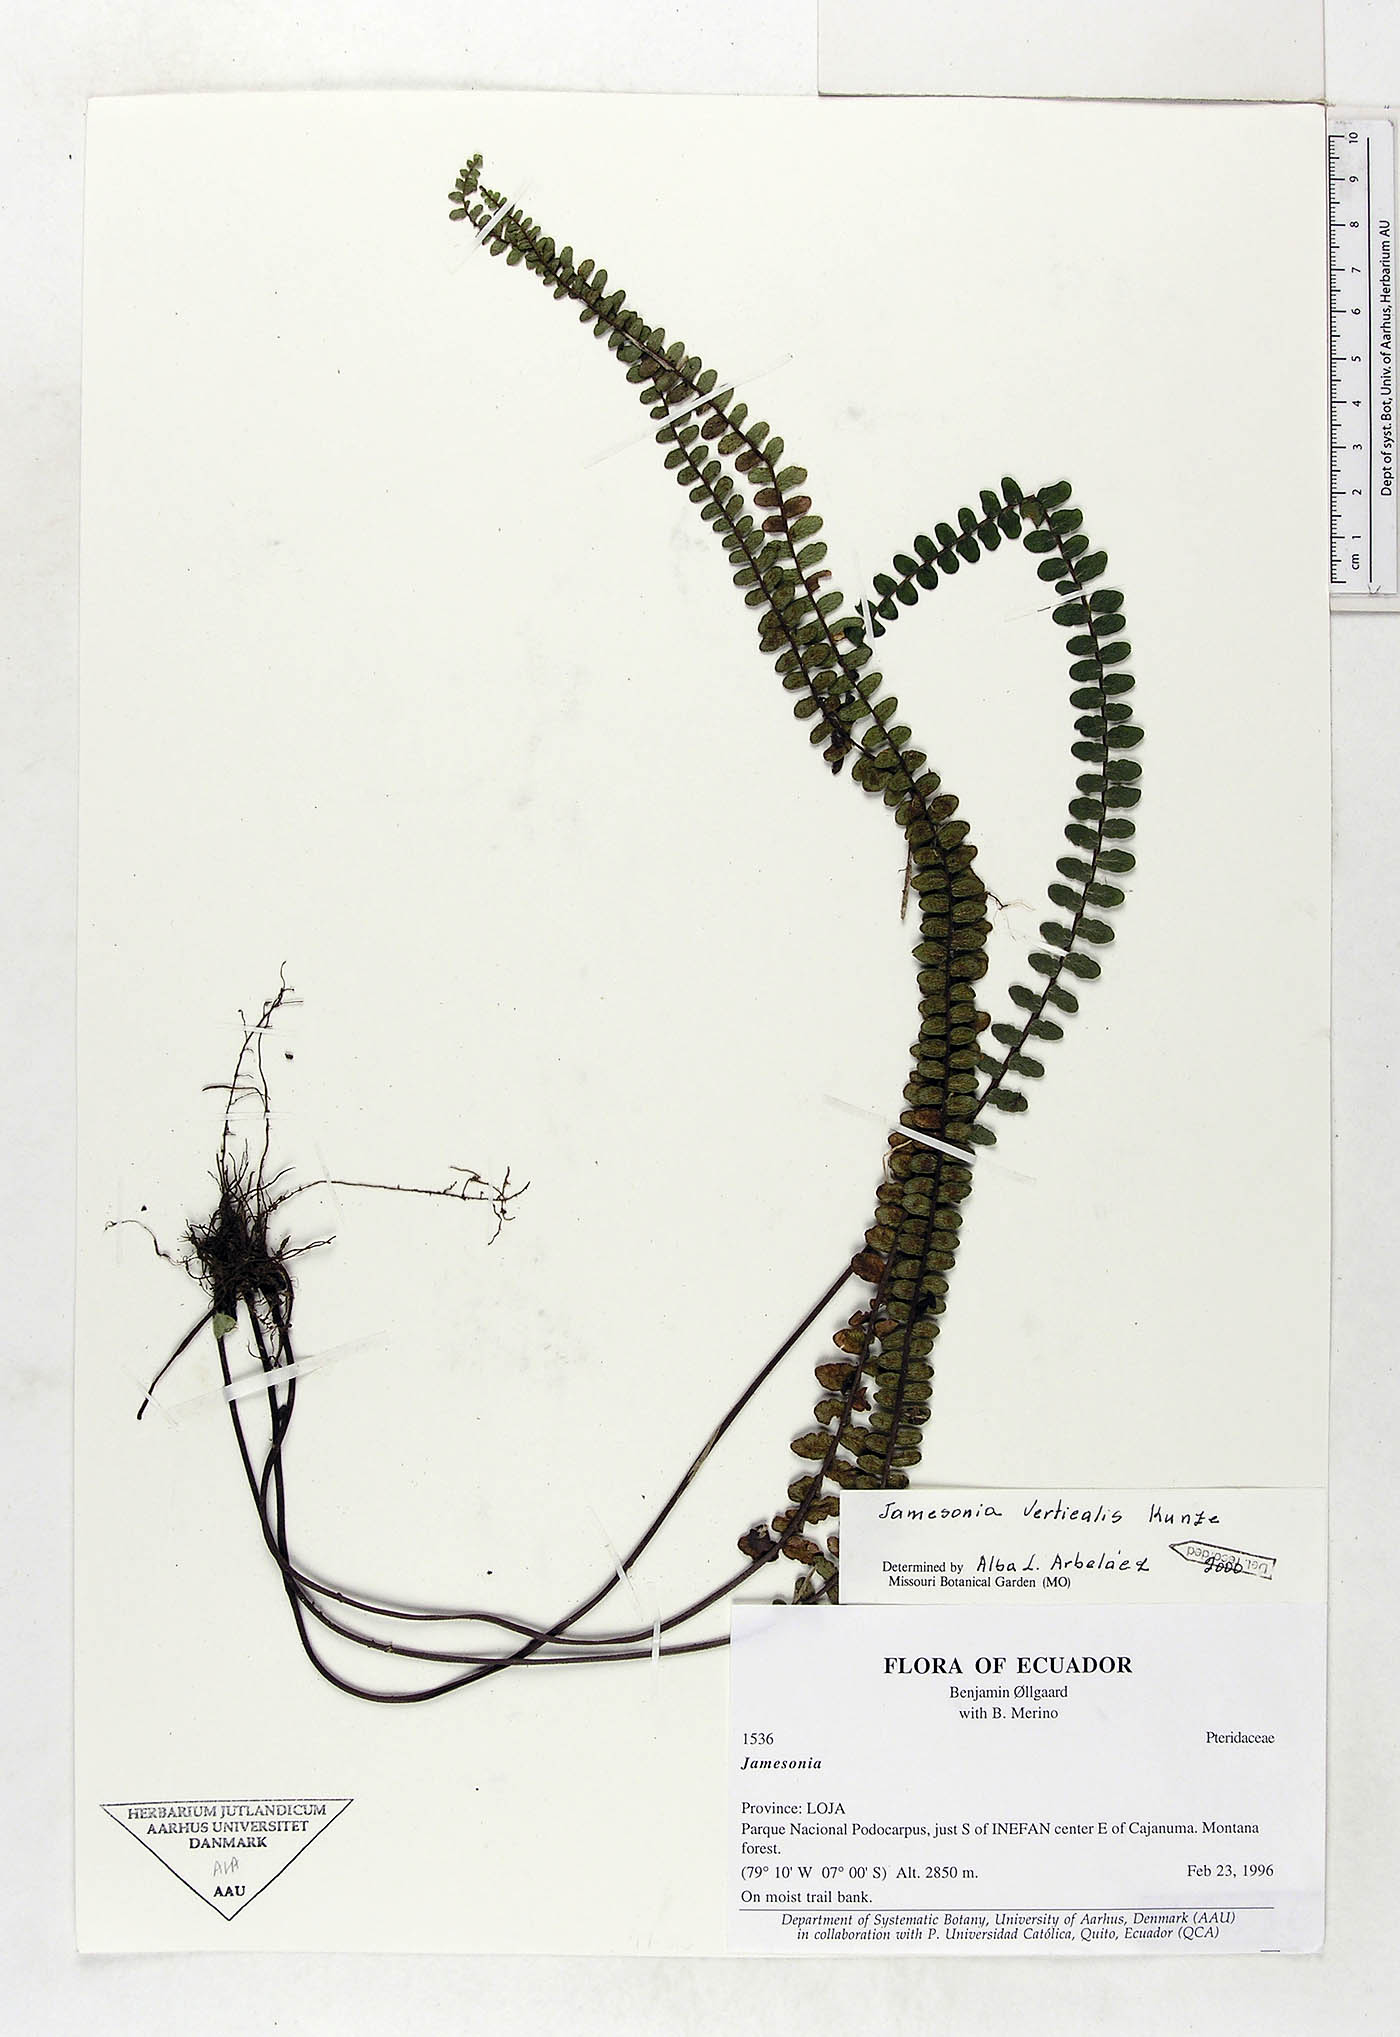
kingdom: Plantae
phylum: Tracheophyta
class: Polypodiopsida
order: Polypodiales
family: Pteridaceae
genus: Jamesonia
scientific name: Jamesonia verticalis
